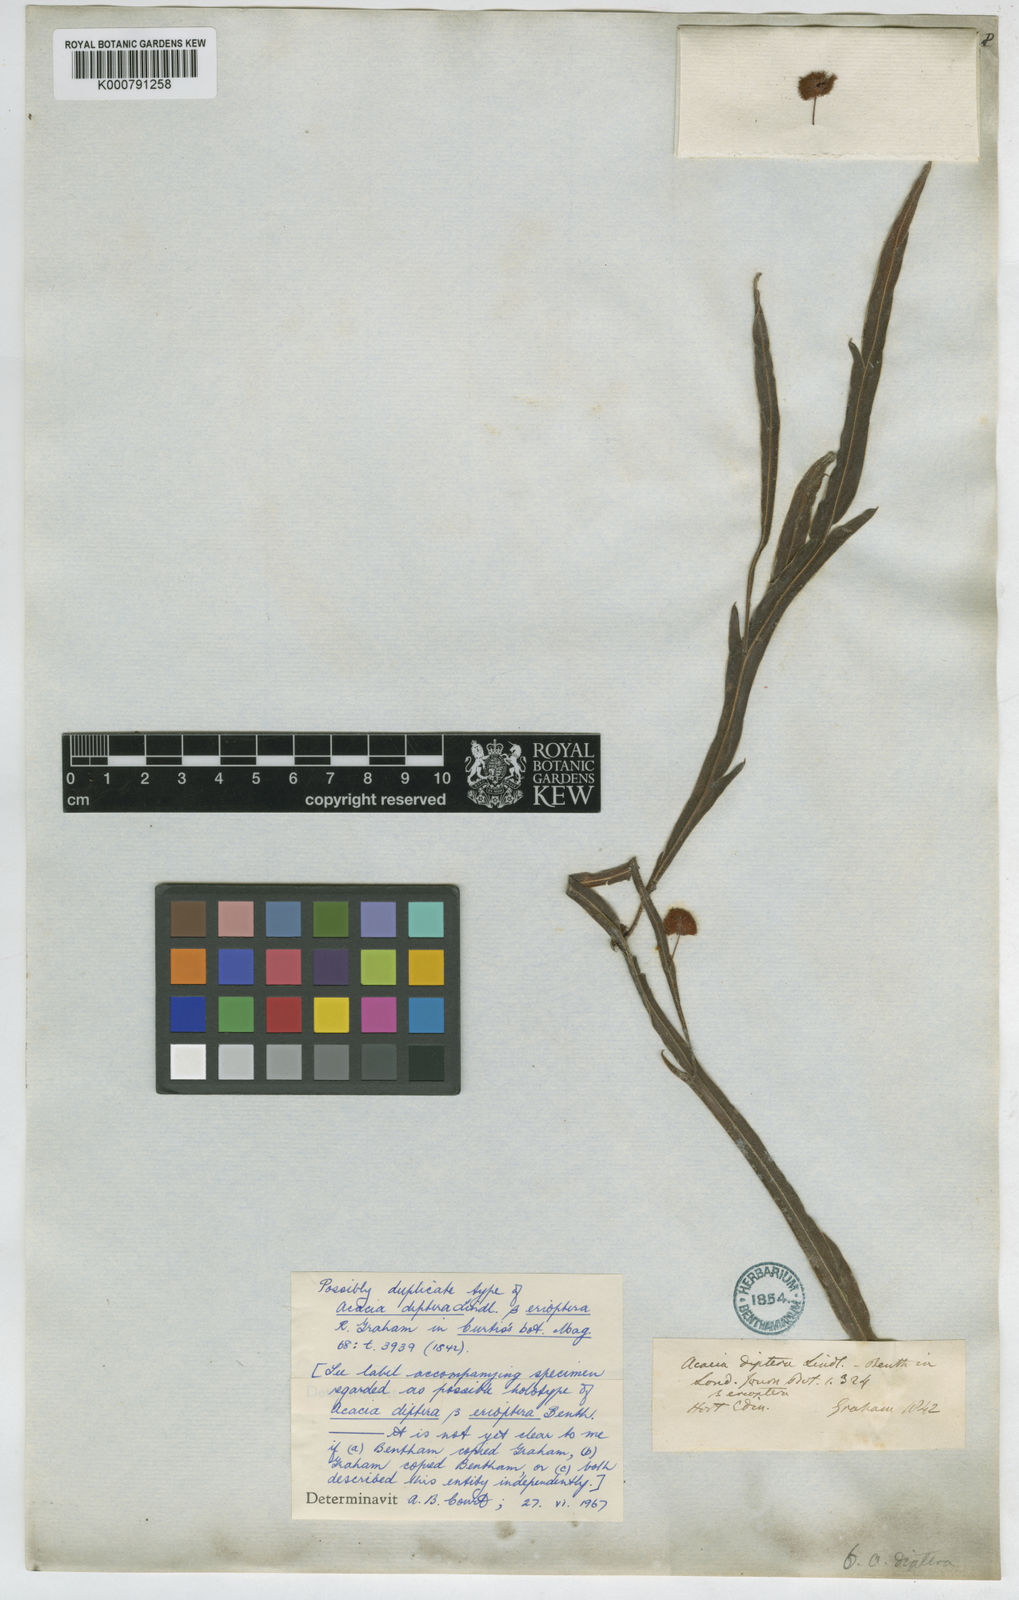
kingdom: Plantae
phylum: Tracheophyta
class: Magnoliopsida
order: Fabales
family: Fabaceae
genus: Acacia
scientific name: Acacia
